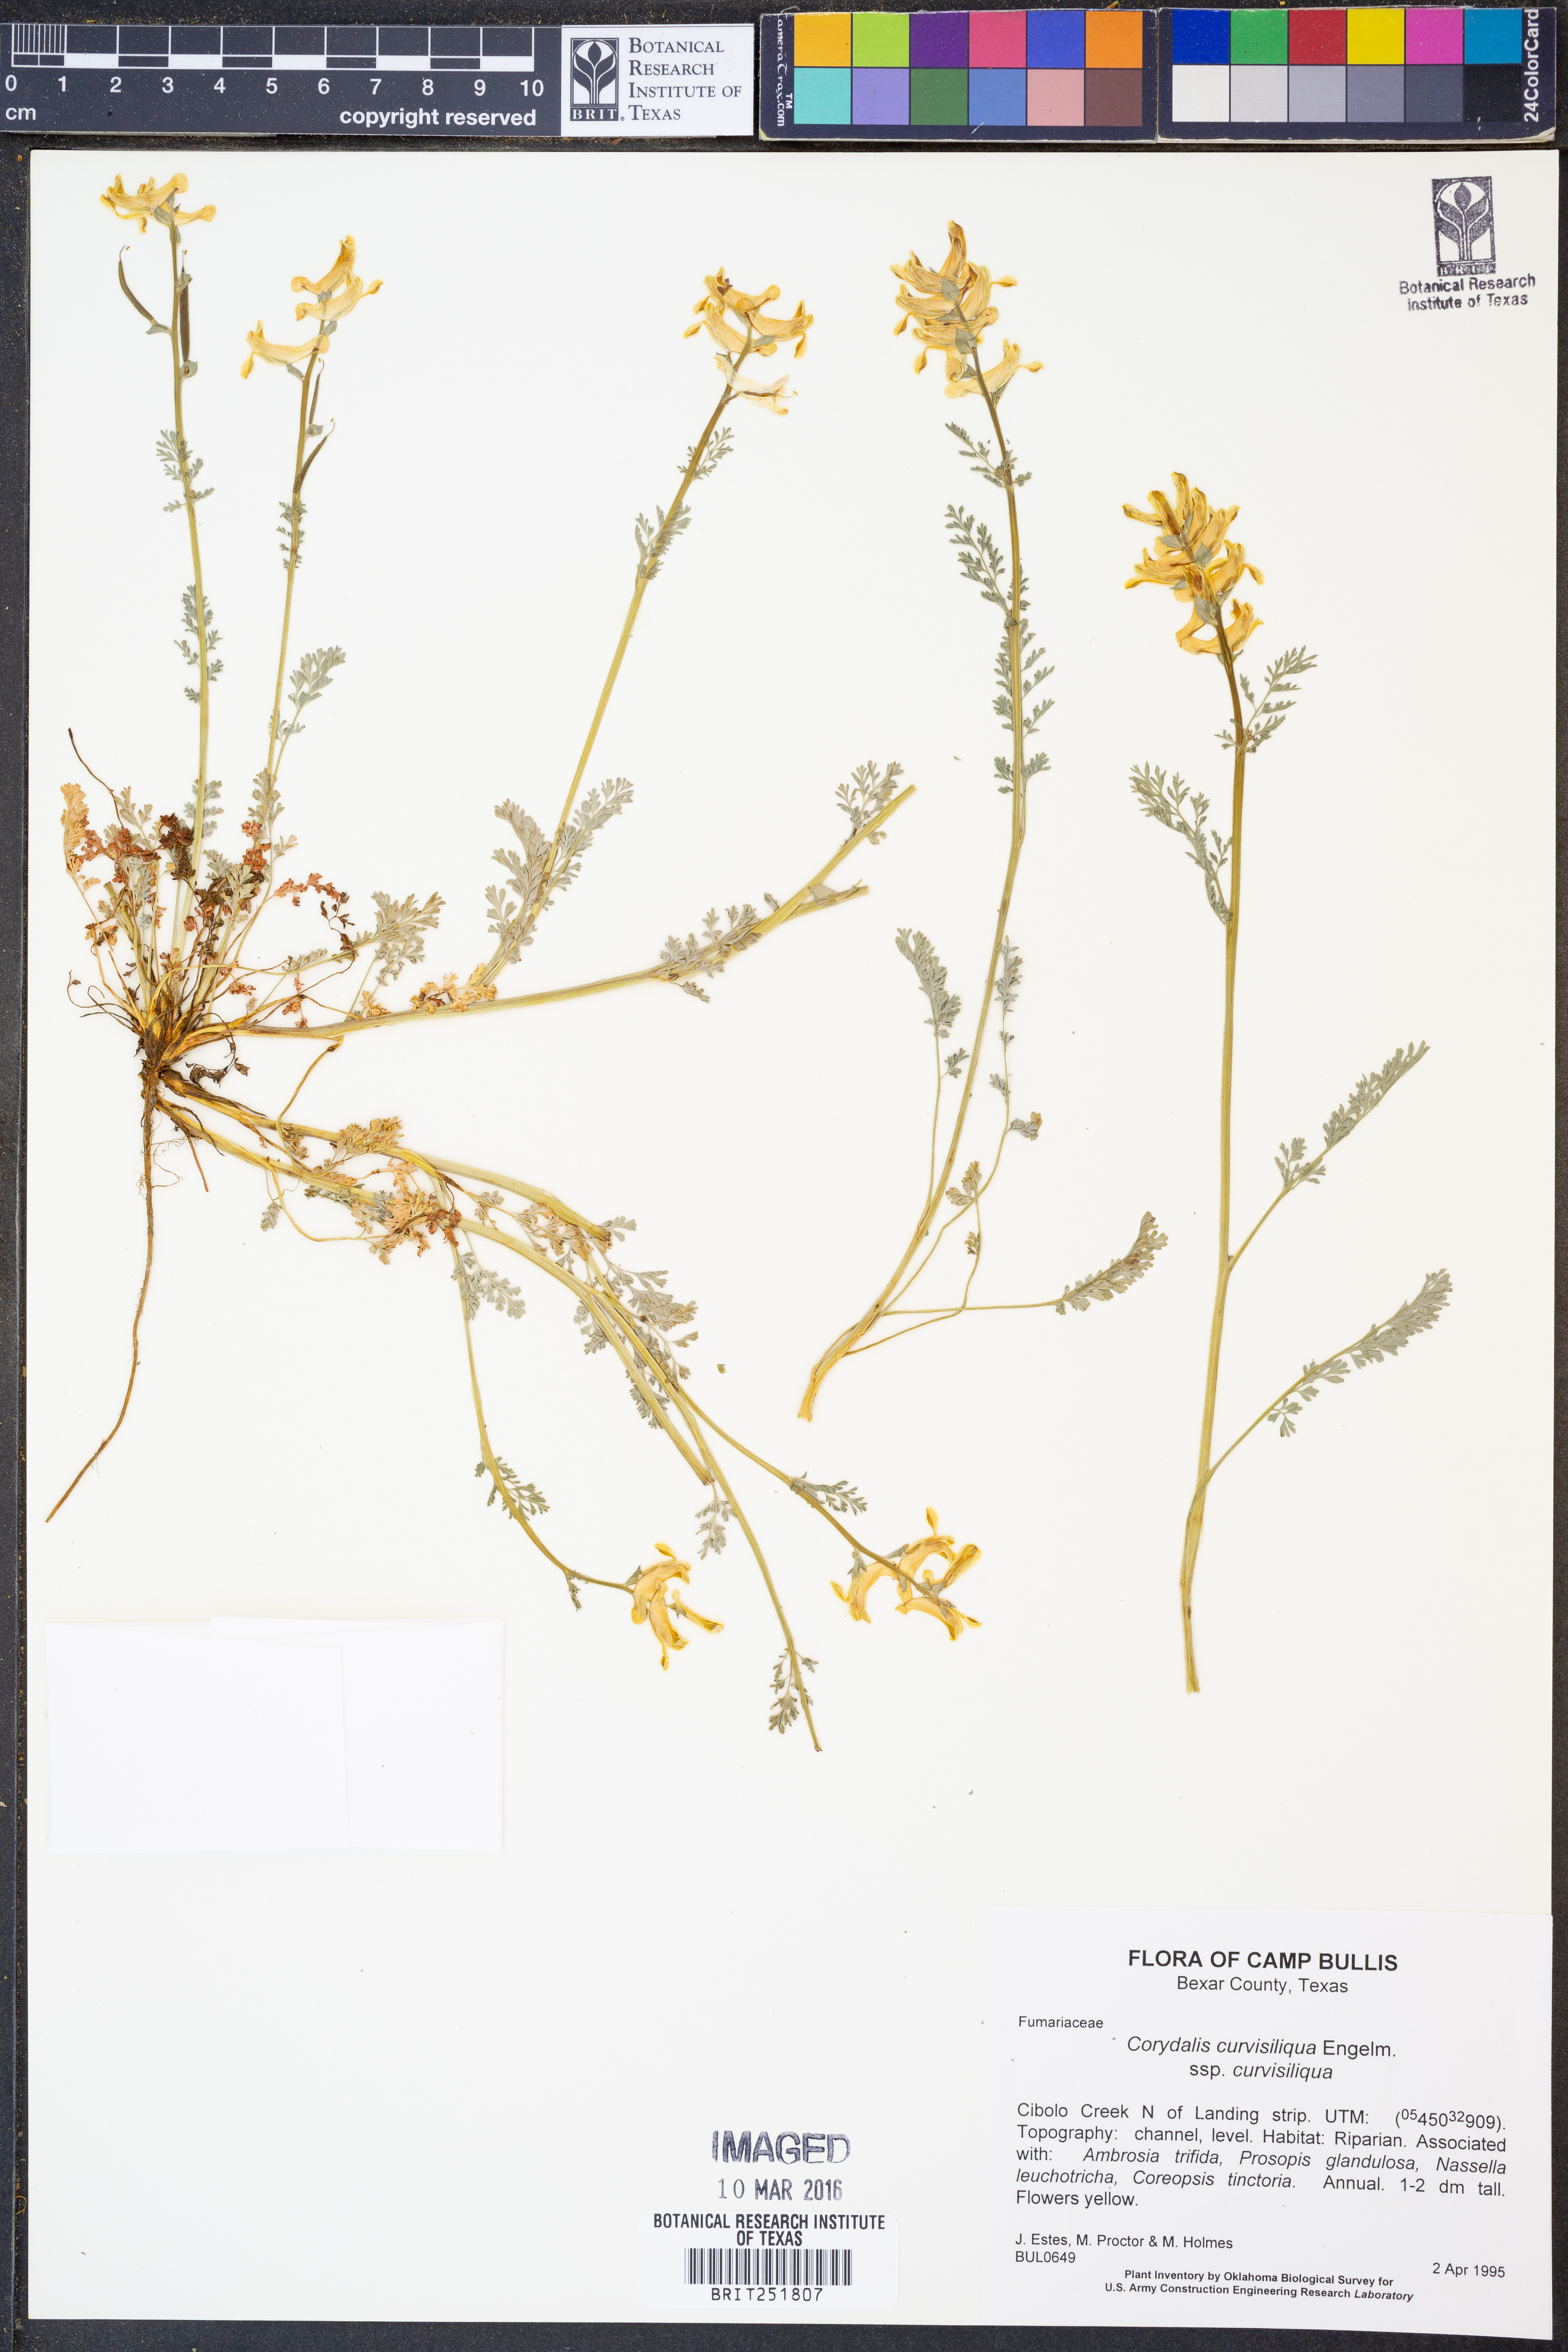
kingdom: Plantae
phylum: Tracheophyta
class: Magnoliopsida
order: Ranunculales
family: Papaveraceae
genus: Corydalis
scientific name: Corydalis curvisiliqua
